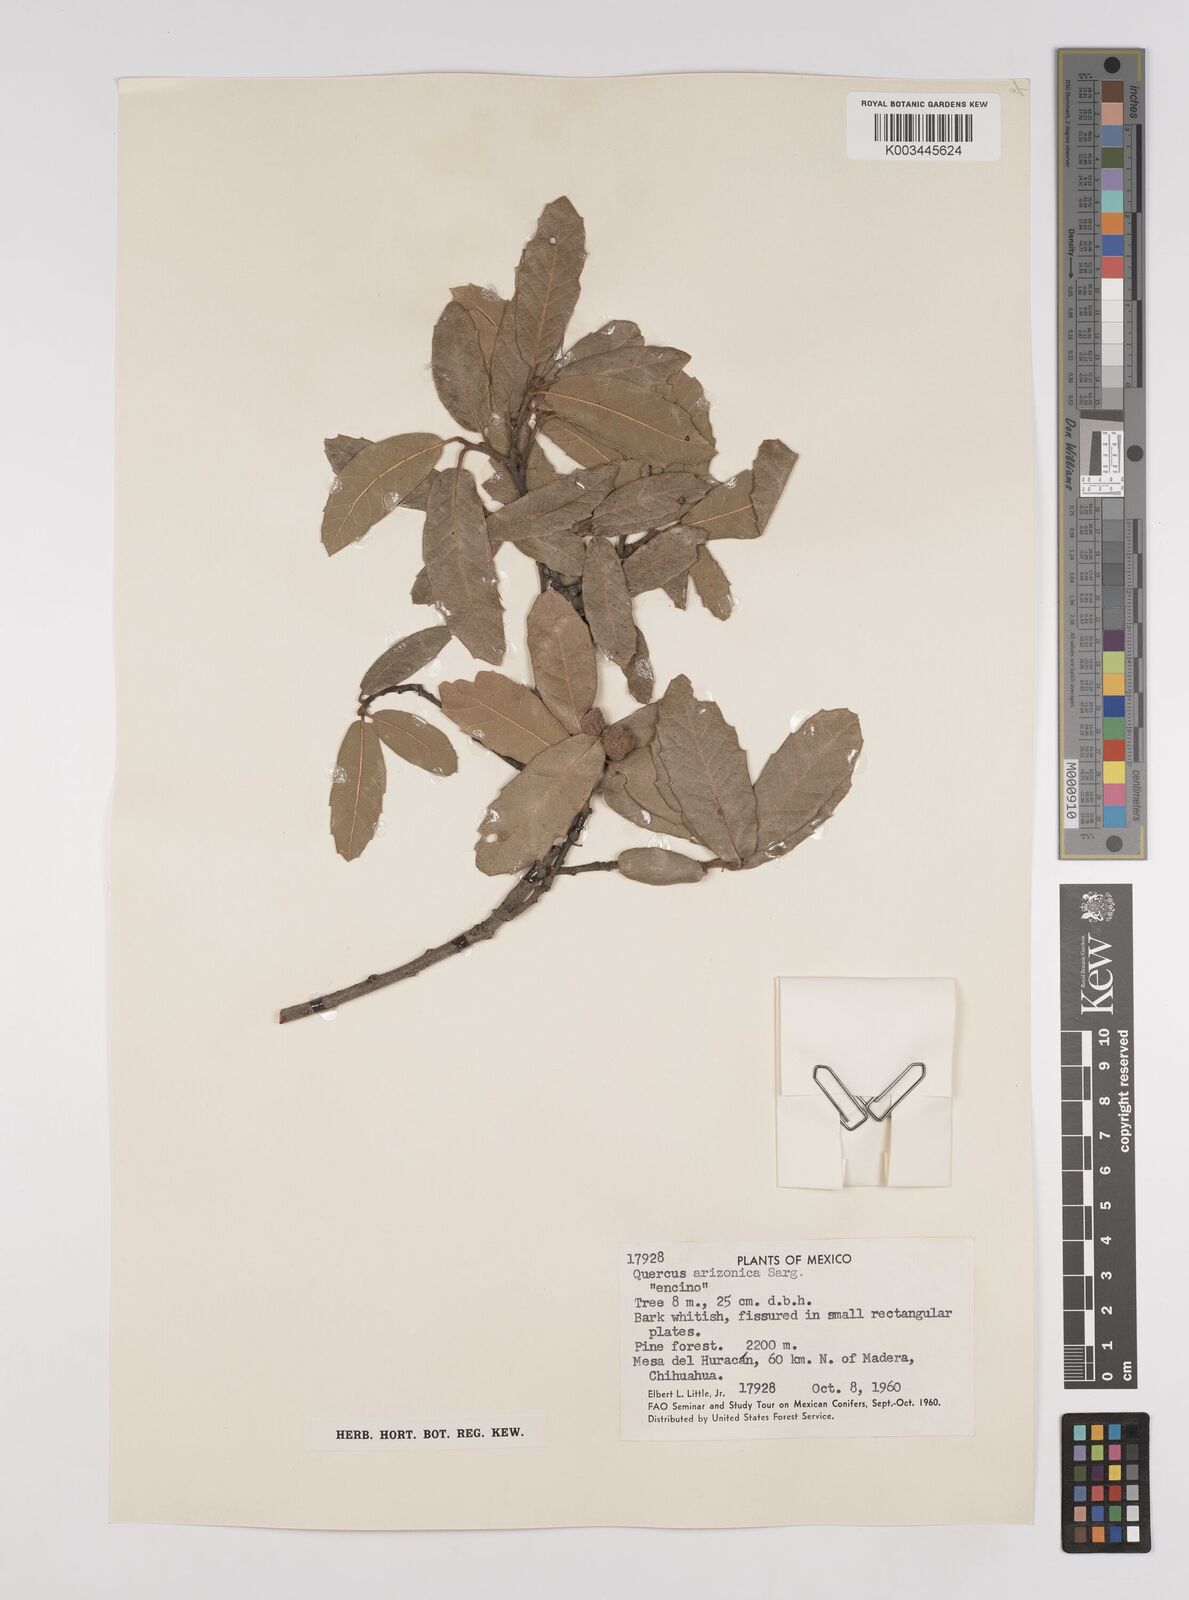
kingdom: Plantae
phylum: Tracheophyta
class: Magnoliopsida
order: Fagales
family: Fagaceae
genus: Quercus
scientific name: Quercus arizonica
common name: Arizona white oak
